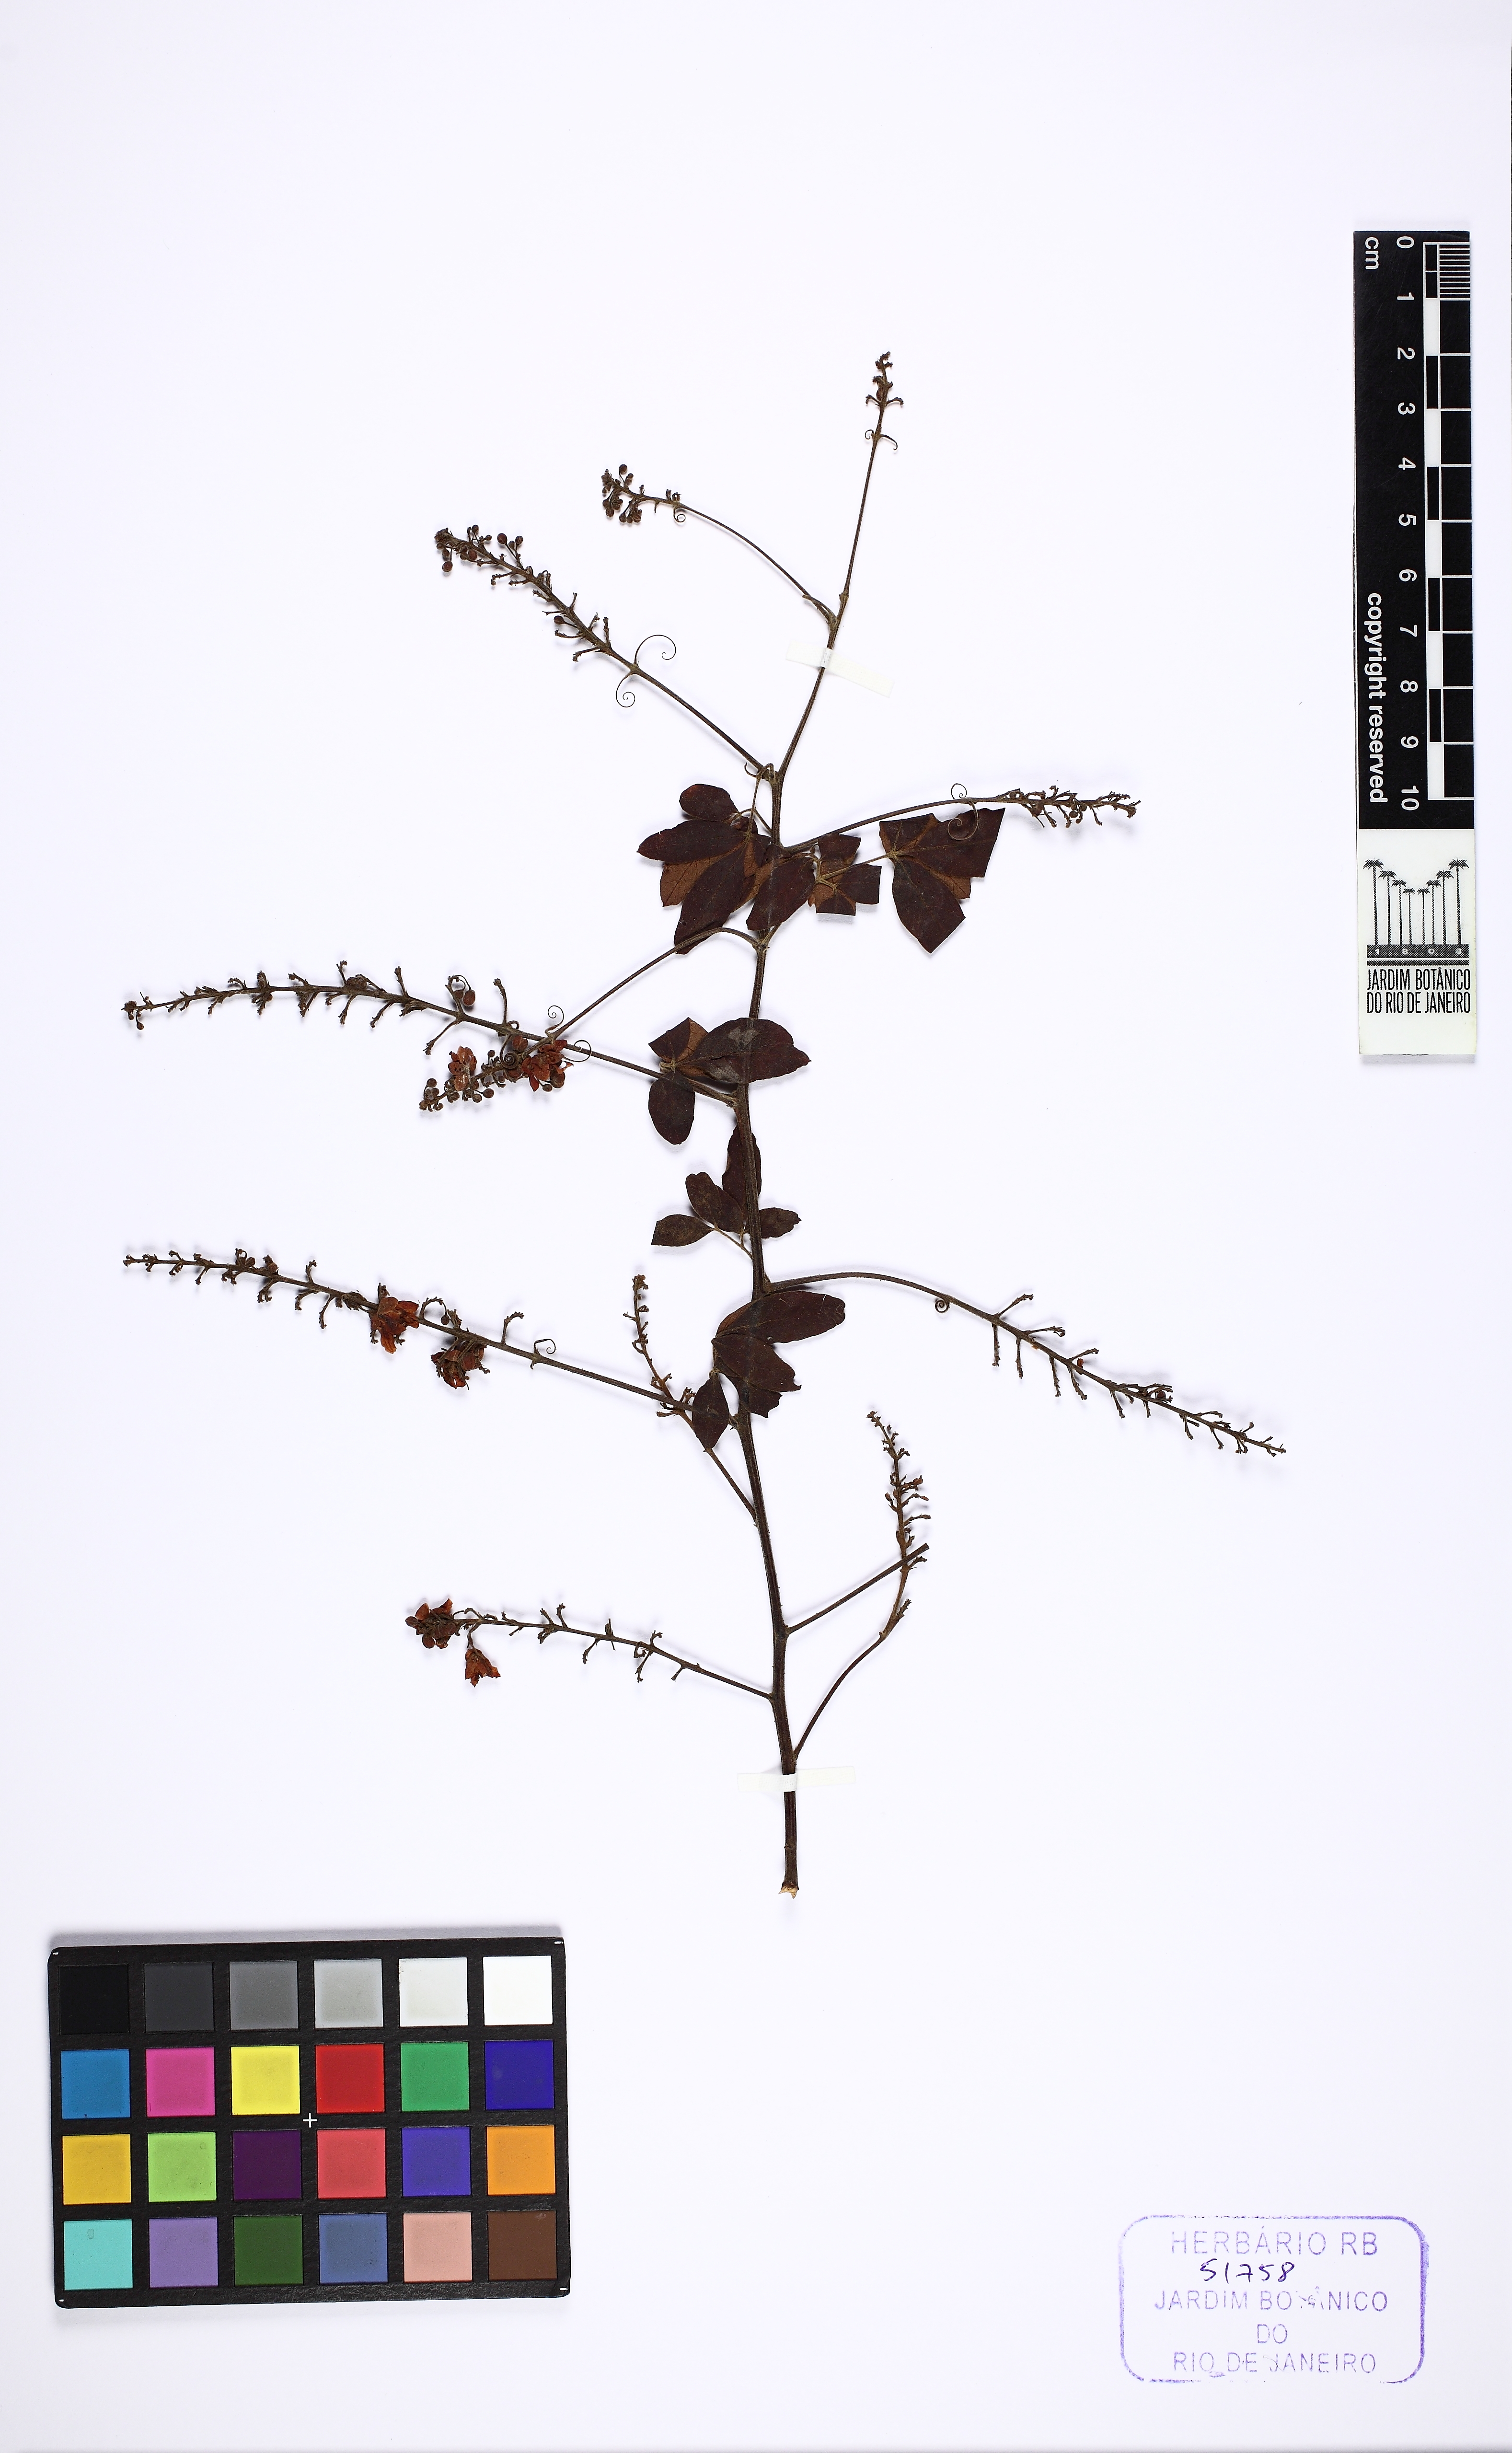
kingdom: Plantae
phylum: Tracheophyta
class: Magnoliopsida
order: Sapindales
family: Sapindaceae
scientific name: Sapindaceae
